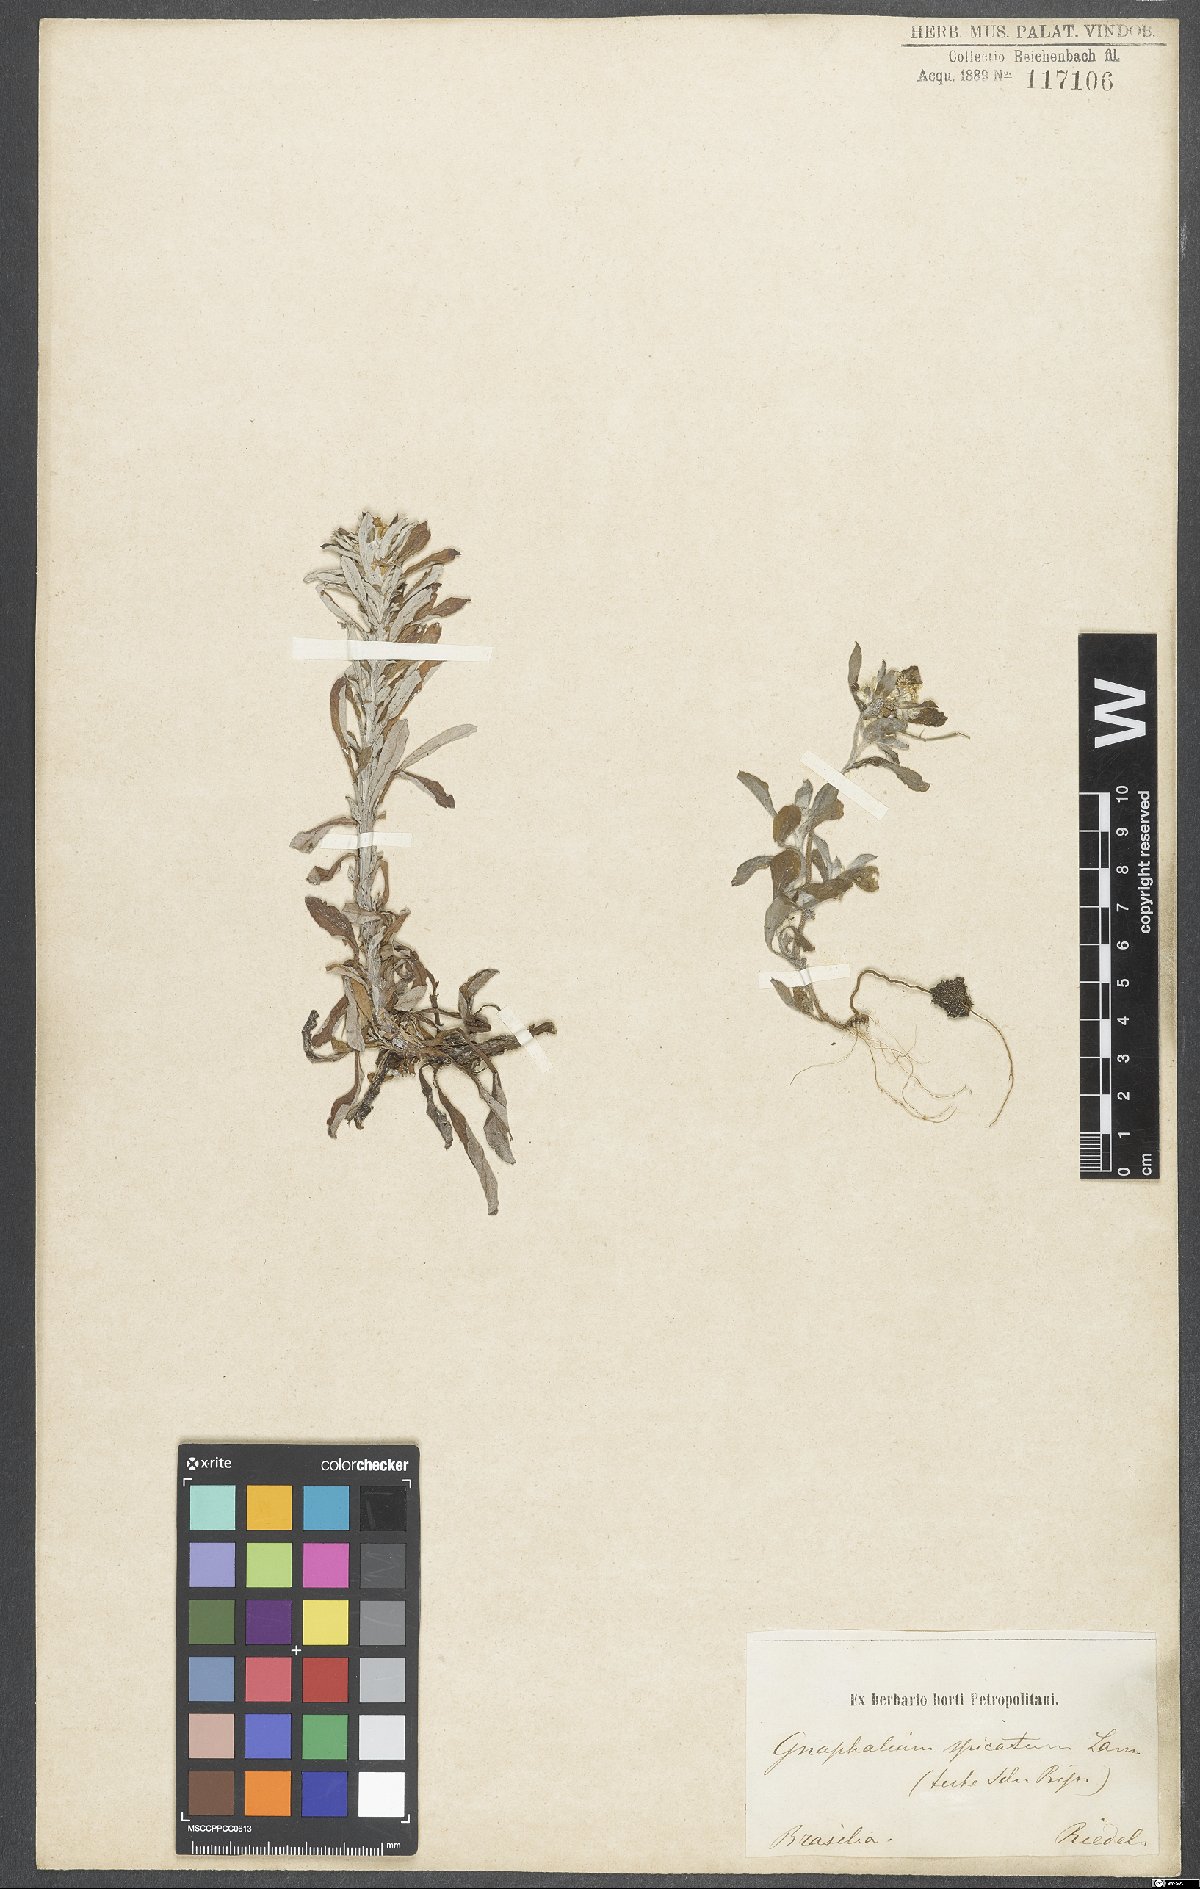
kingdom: Plantae
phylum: Tracheophyta
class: Magnoliopsida
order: Asterales
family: Asteraceae
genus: Gamochaeta
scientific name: Gamochaeta americana
